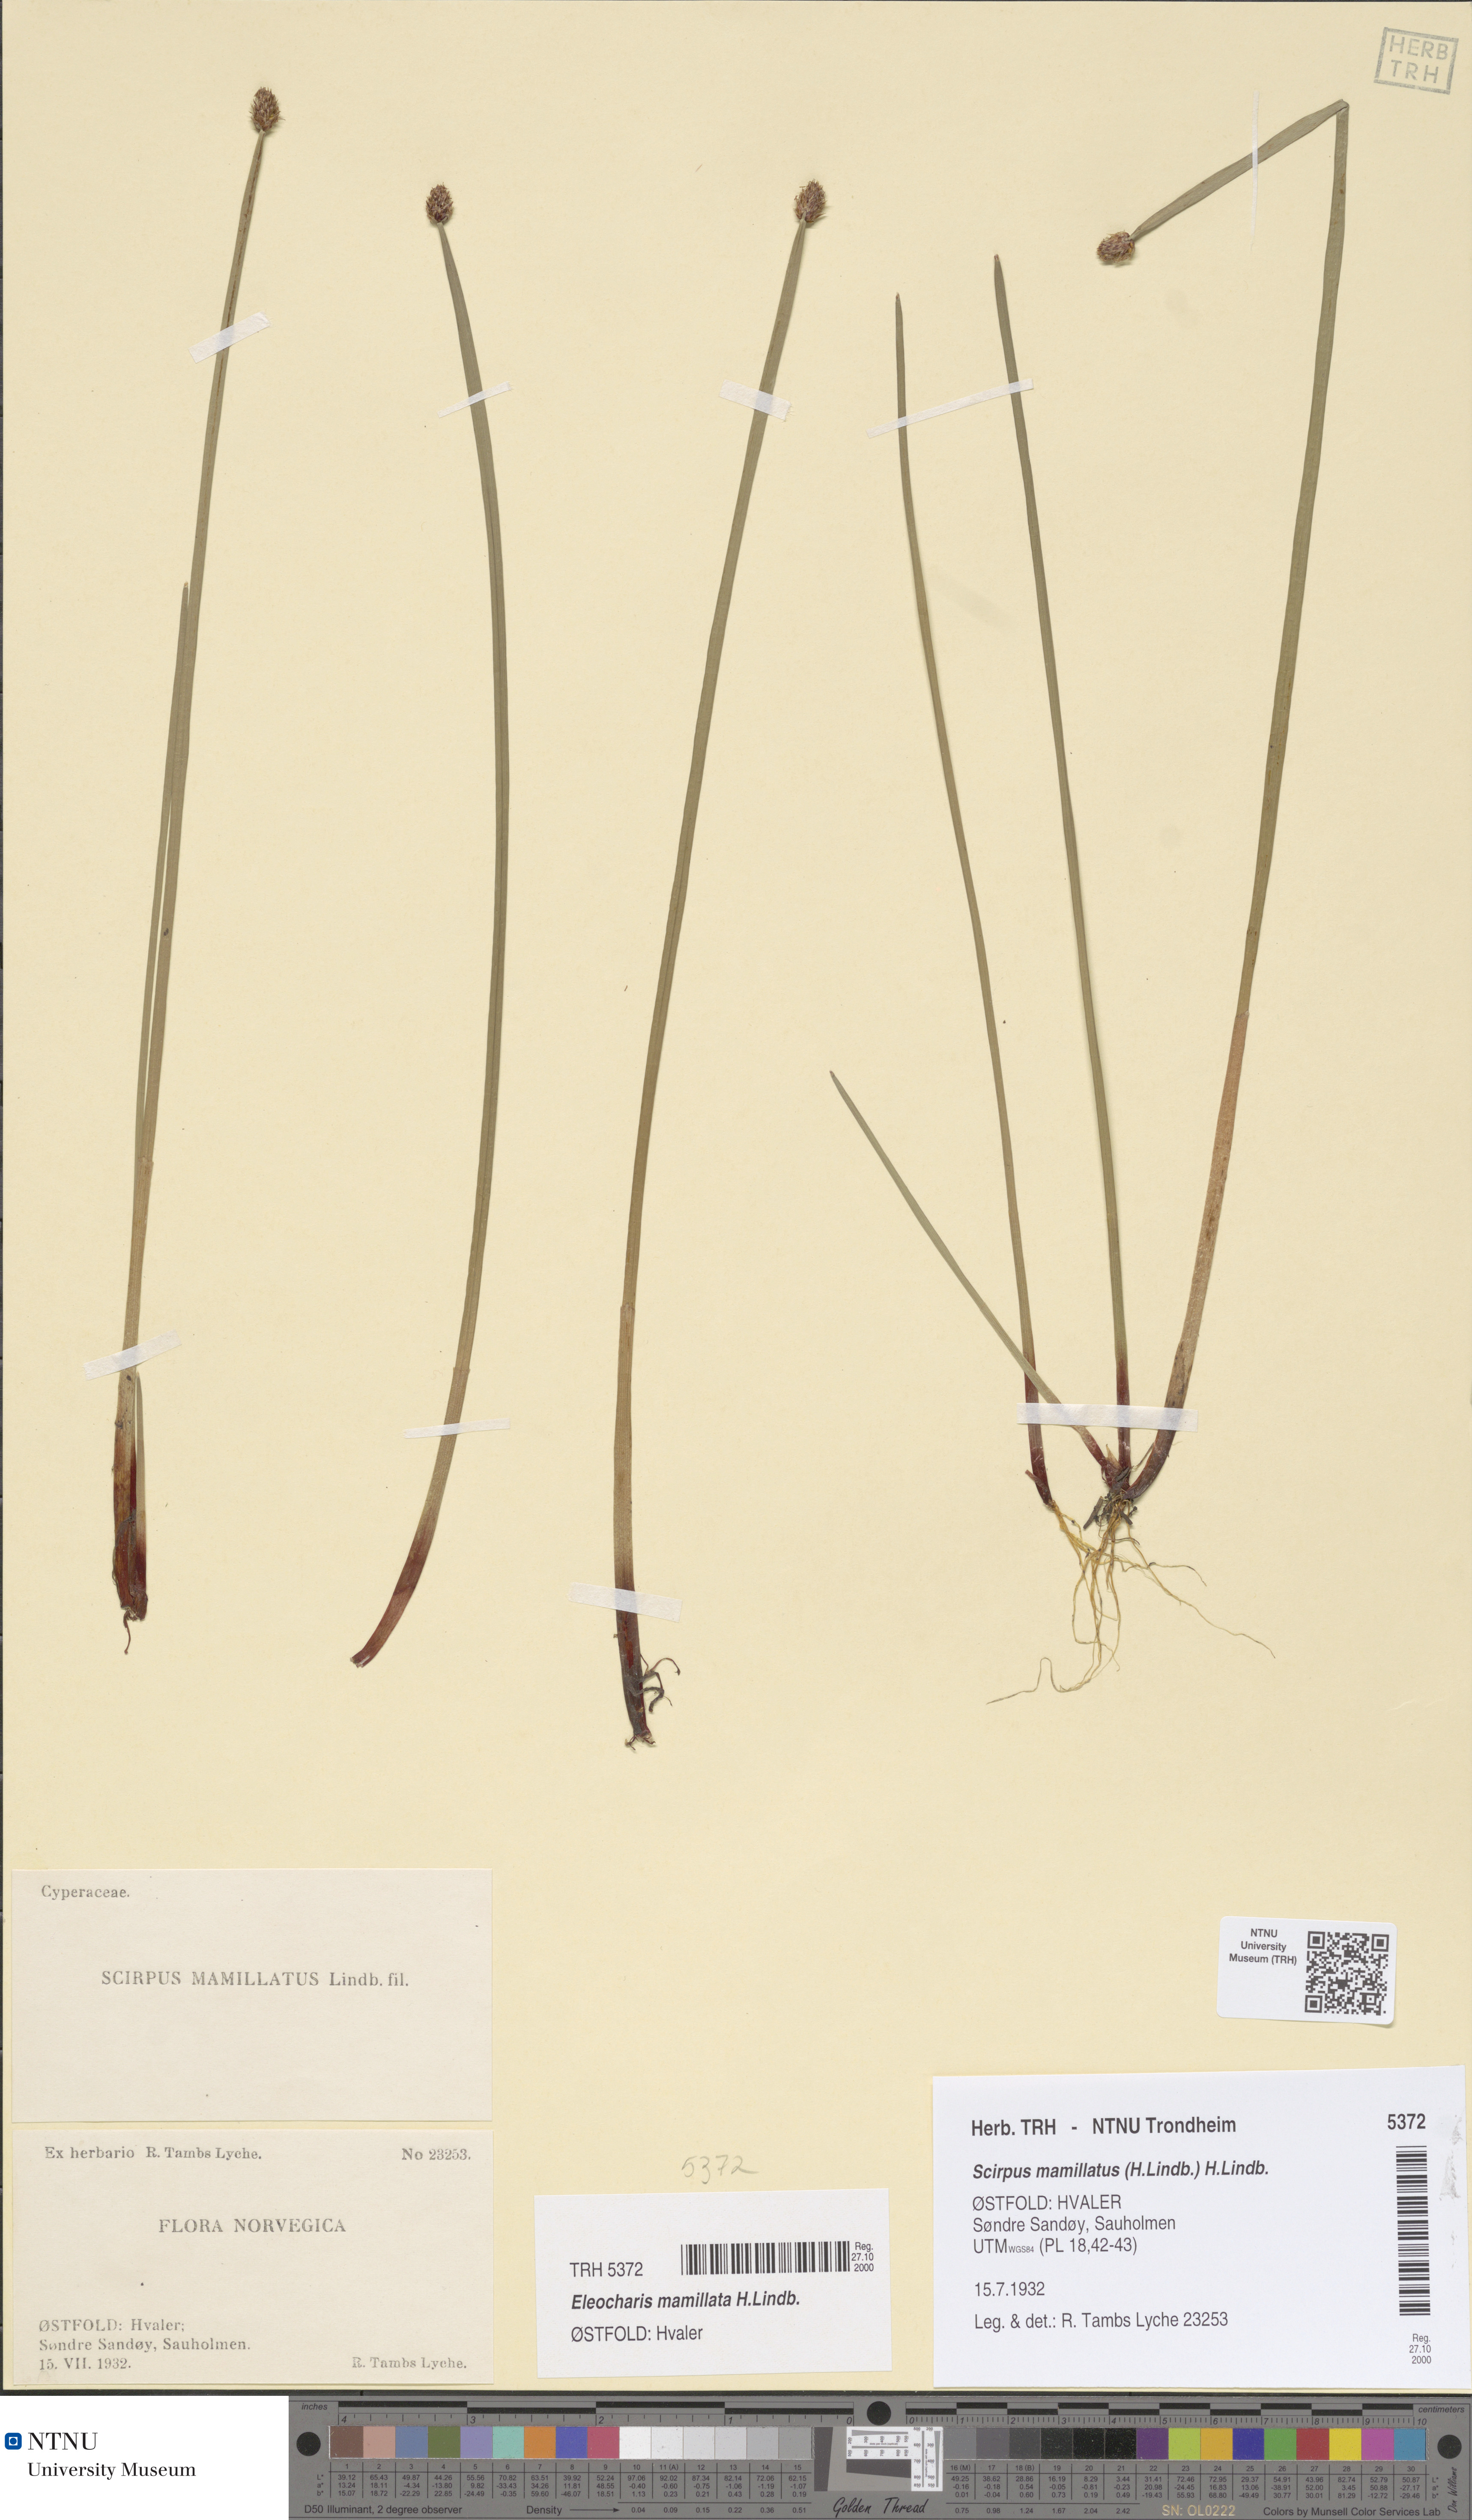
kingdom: Plantae
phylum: Tracheophyta
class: Liliopsida
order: Poales
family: Cyperaceae
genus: Eleocharis
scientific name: Eleocharis mamillata
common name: Northern spike-rush
